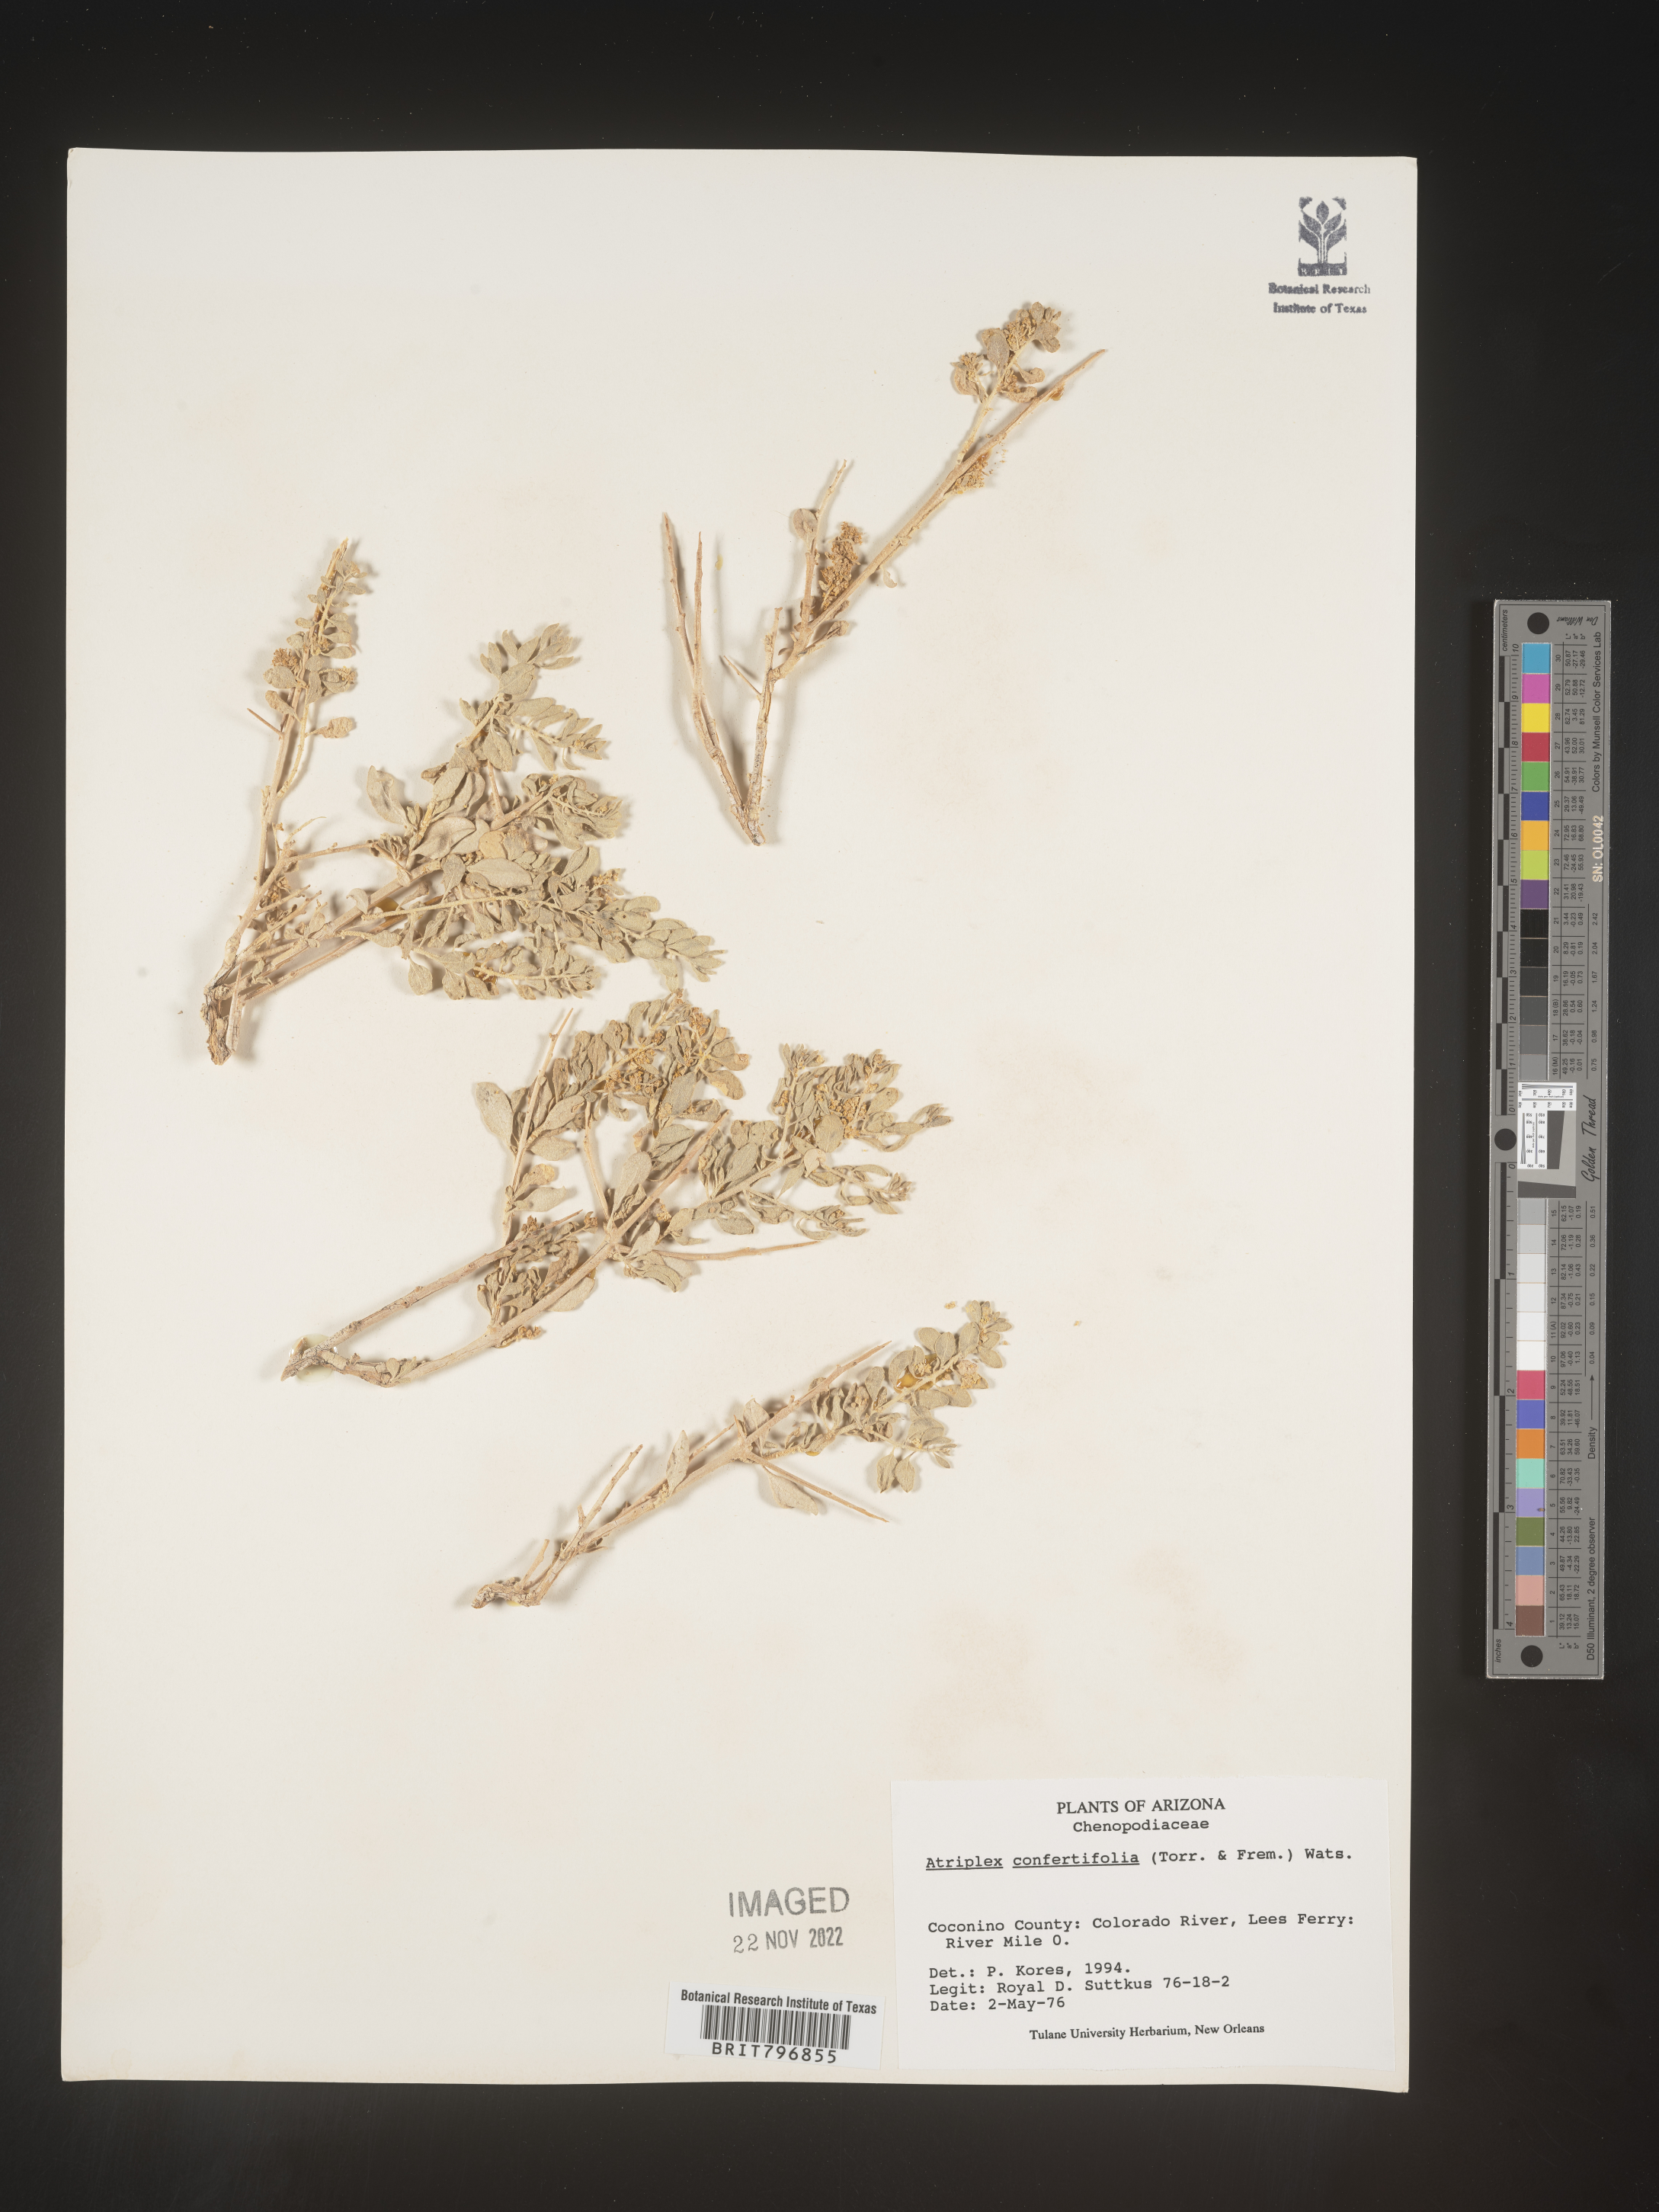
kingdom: Plantae
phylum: Tracheophyta
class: Magnoliopsida
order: Caryophyllales
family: Amaranthaceae
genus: Atriplex
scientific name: Atriplex canescens
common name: Four-wing saltbush
